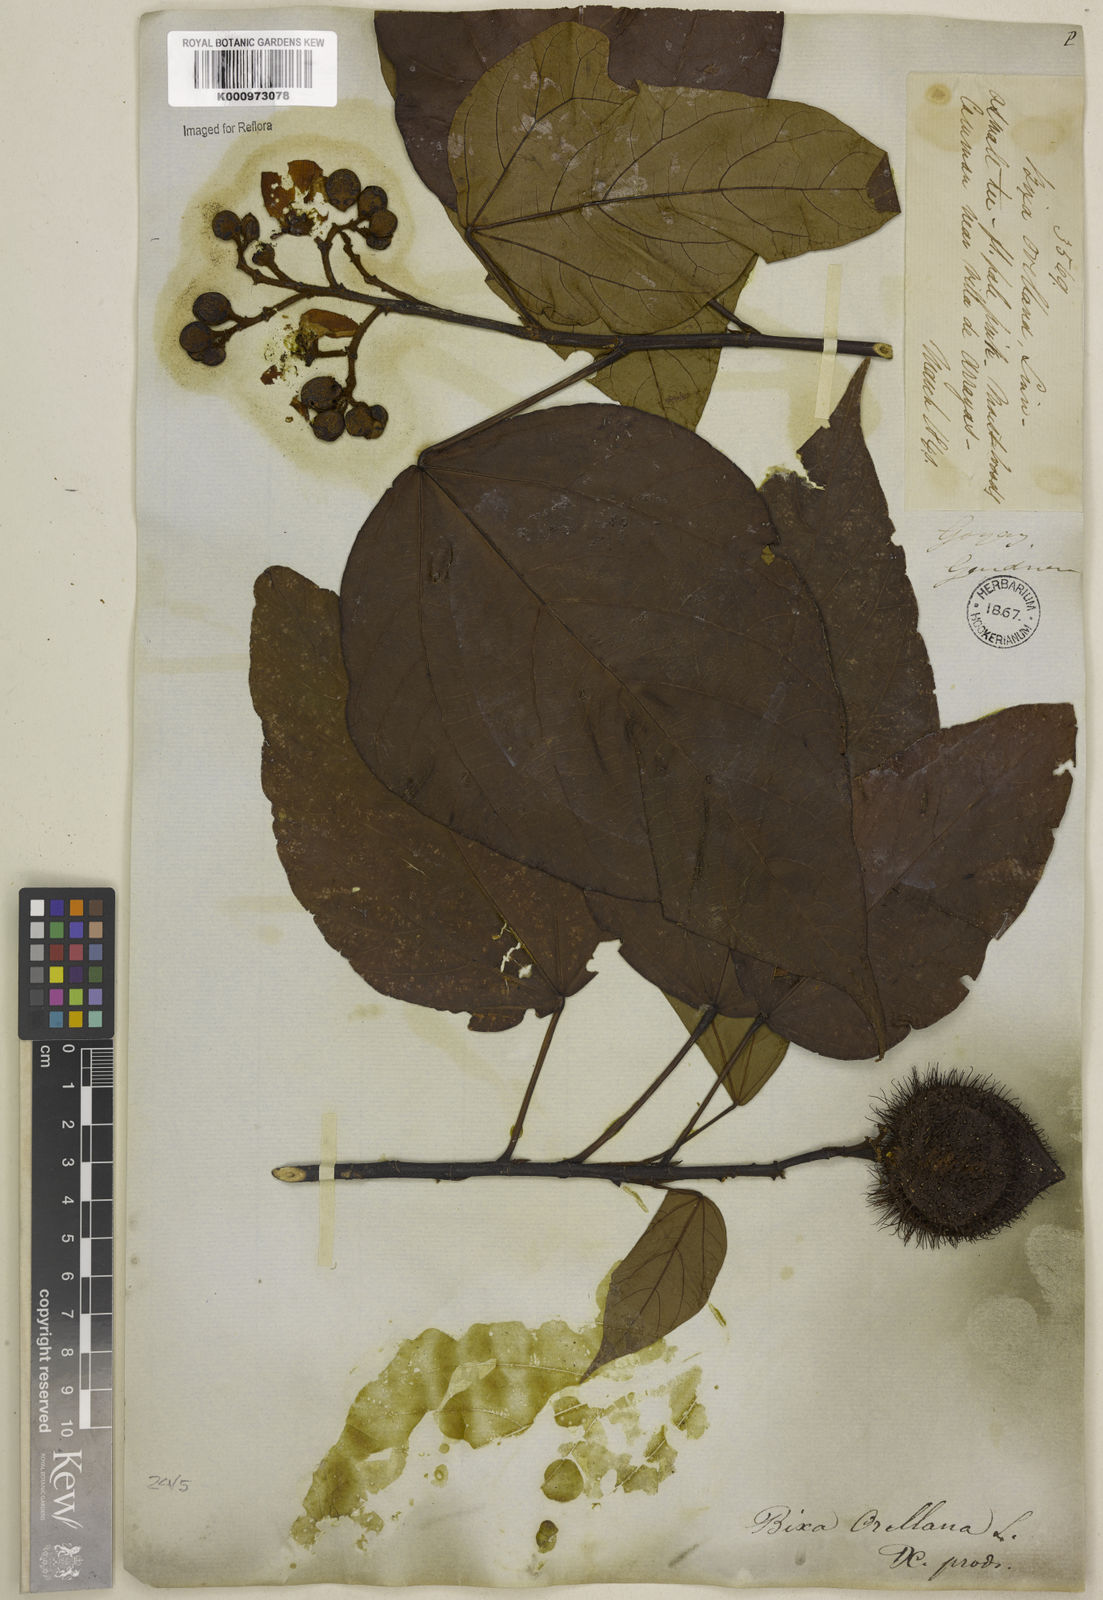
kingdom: Plantae
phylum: Tracheophyta
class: Magnoliopsida
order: Malvales
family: Bixaceae
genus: Bixa
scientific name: Bixa orellana
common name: Lipsticktree
